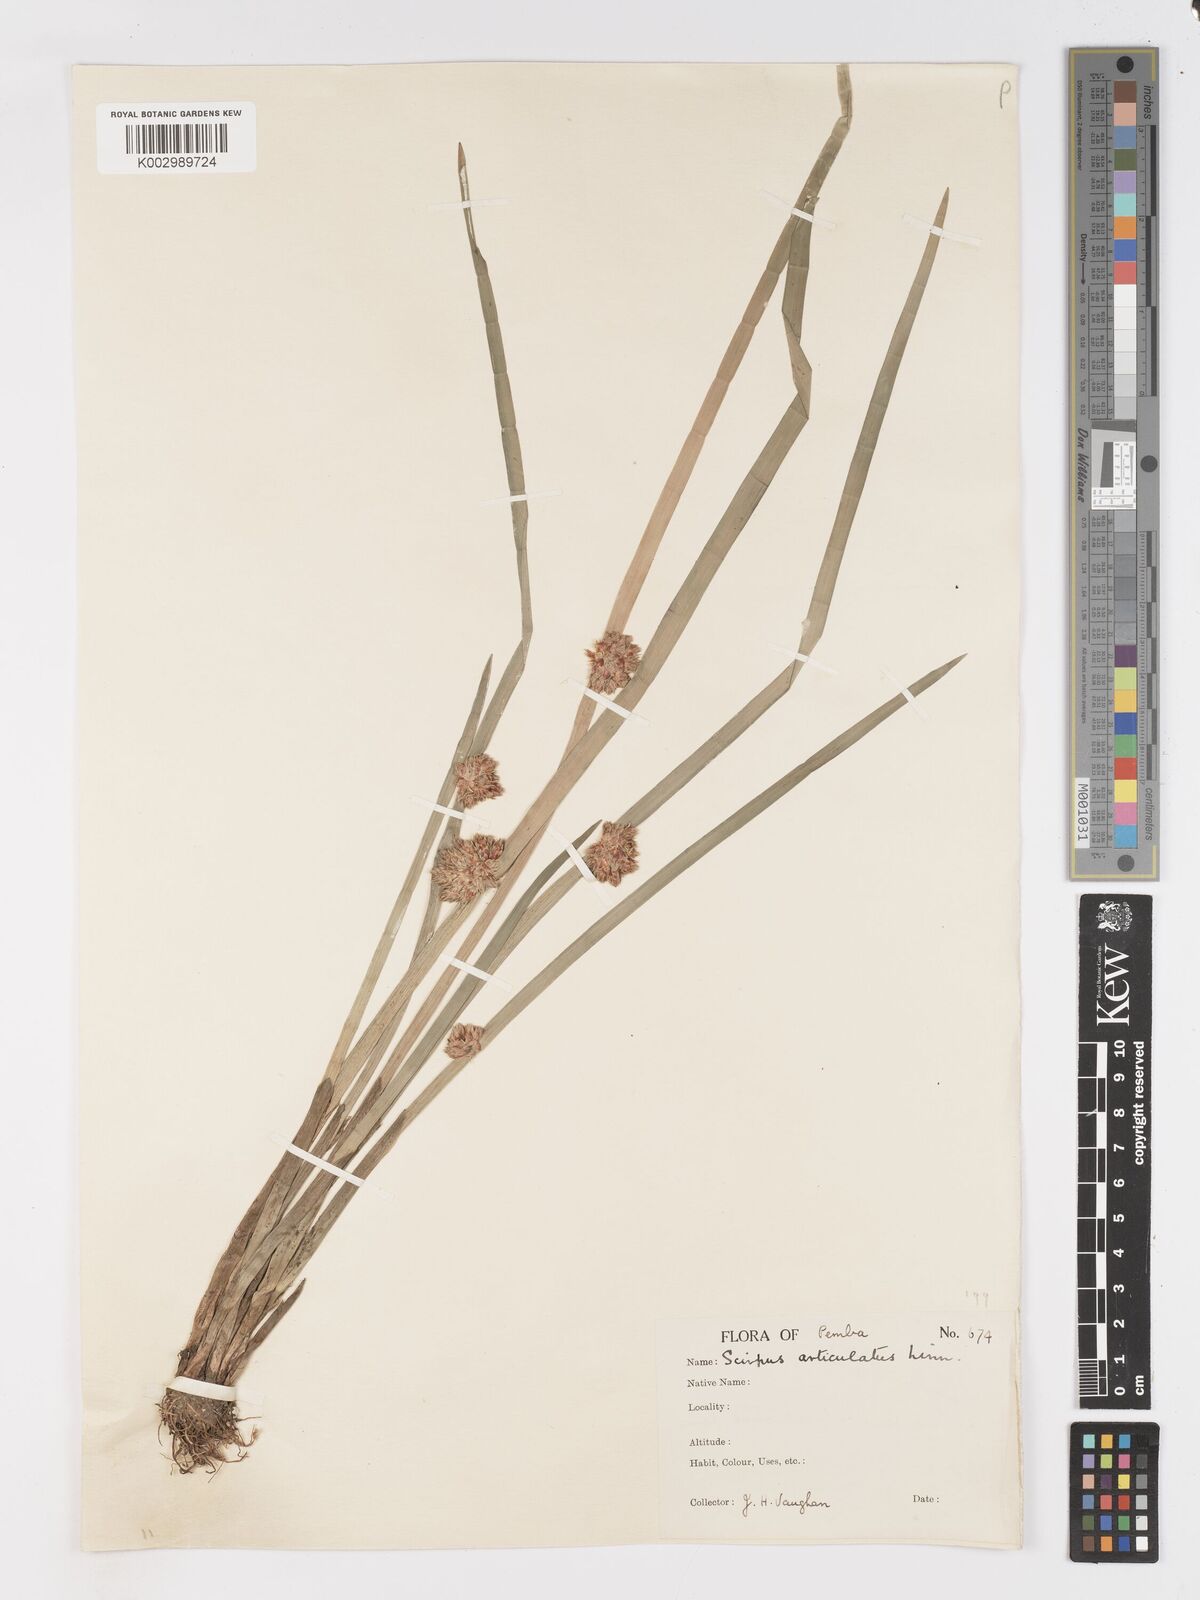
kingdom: Plantae
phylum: Tracheophyta
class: Liliopsida
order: Poales
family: Cyperaceae
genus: Schoenoplectiella
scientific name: Schoenoplectiella articulata
